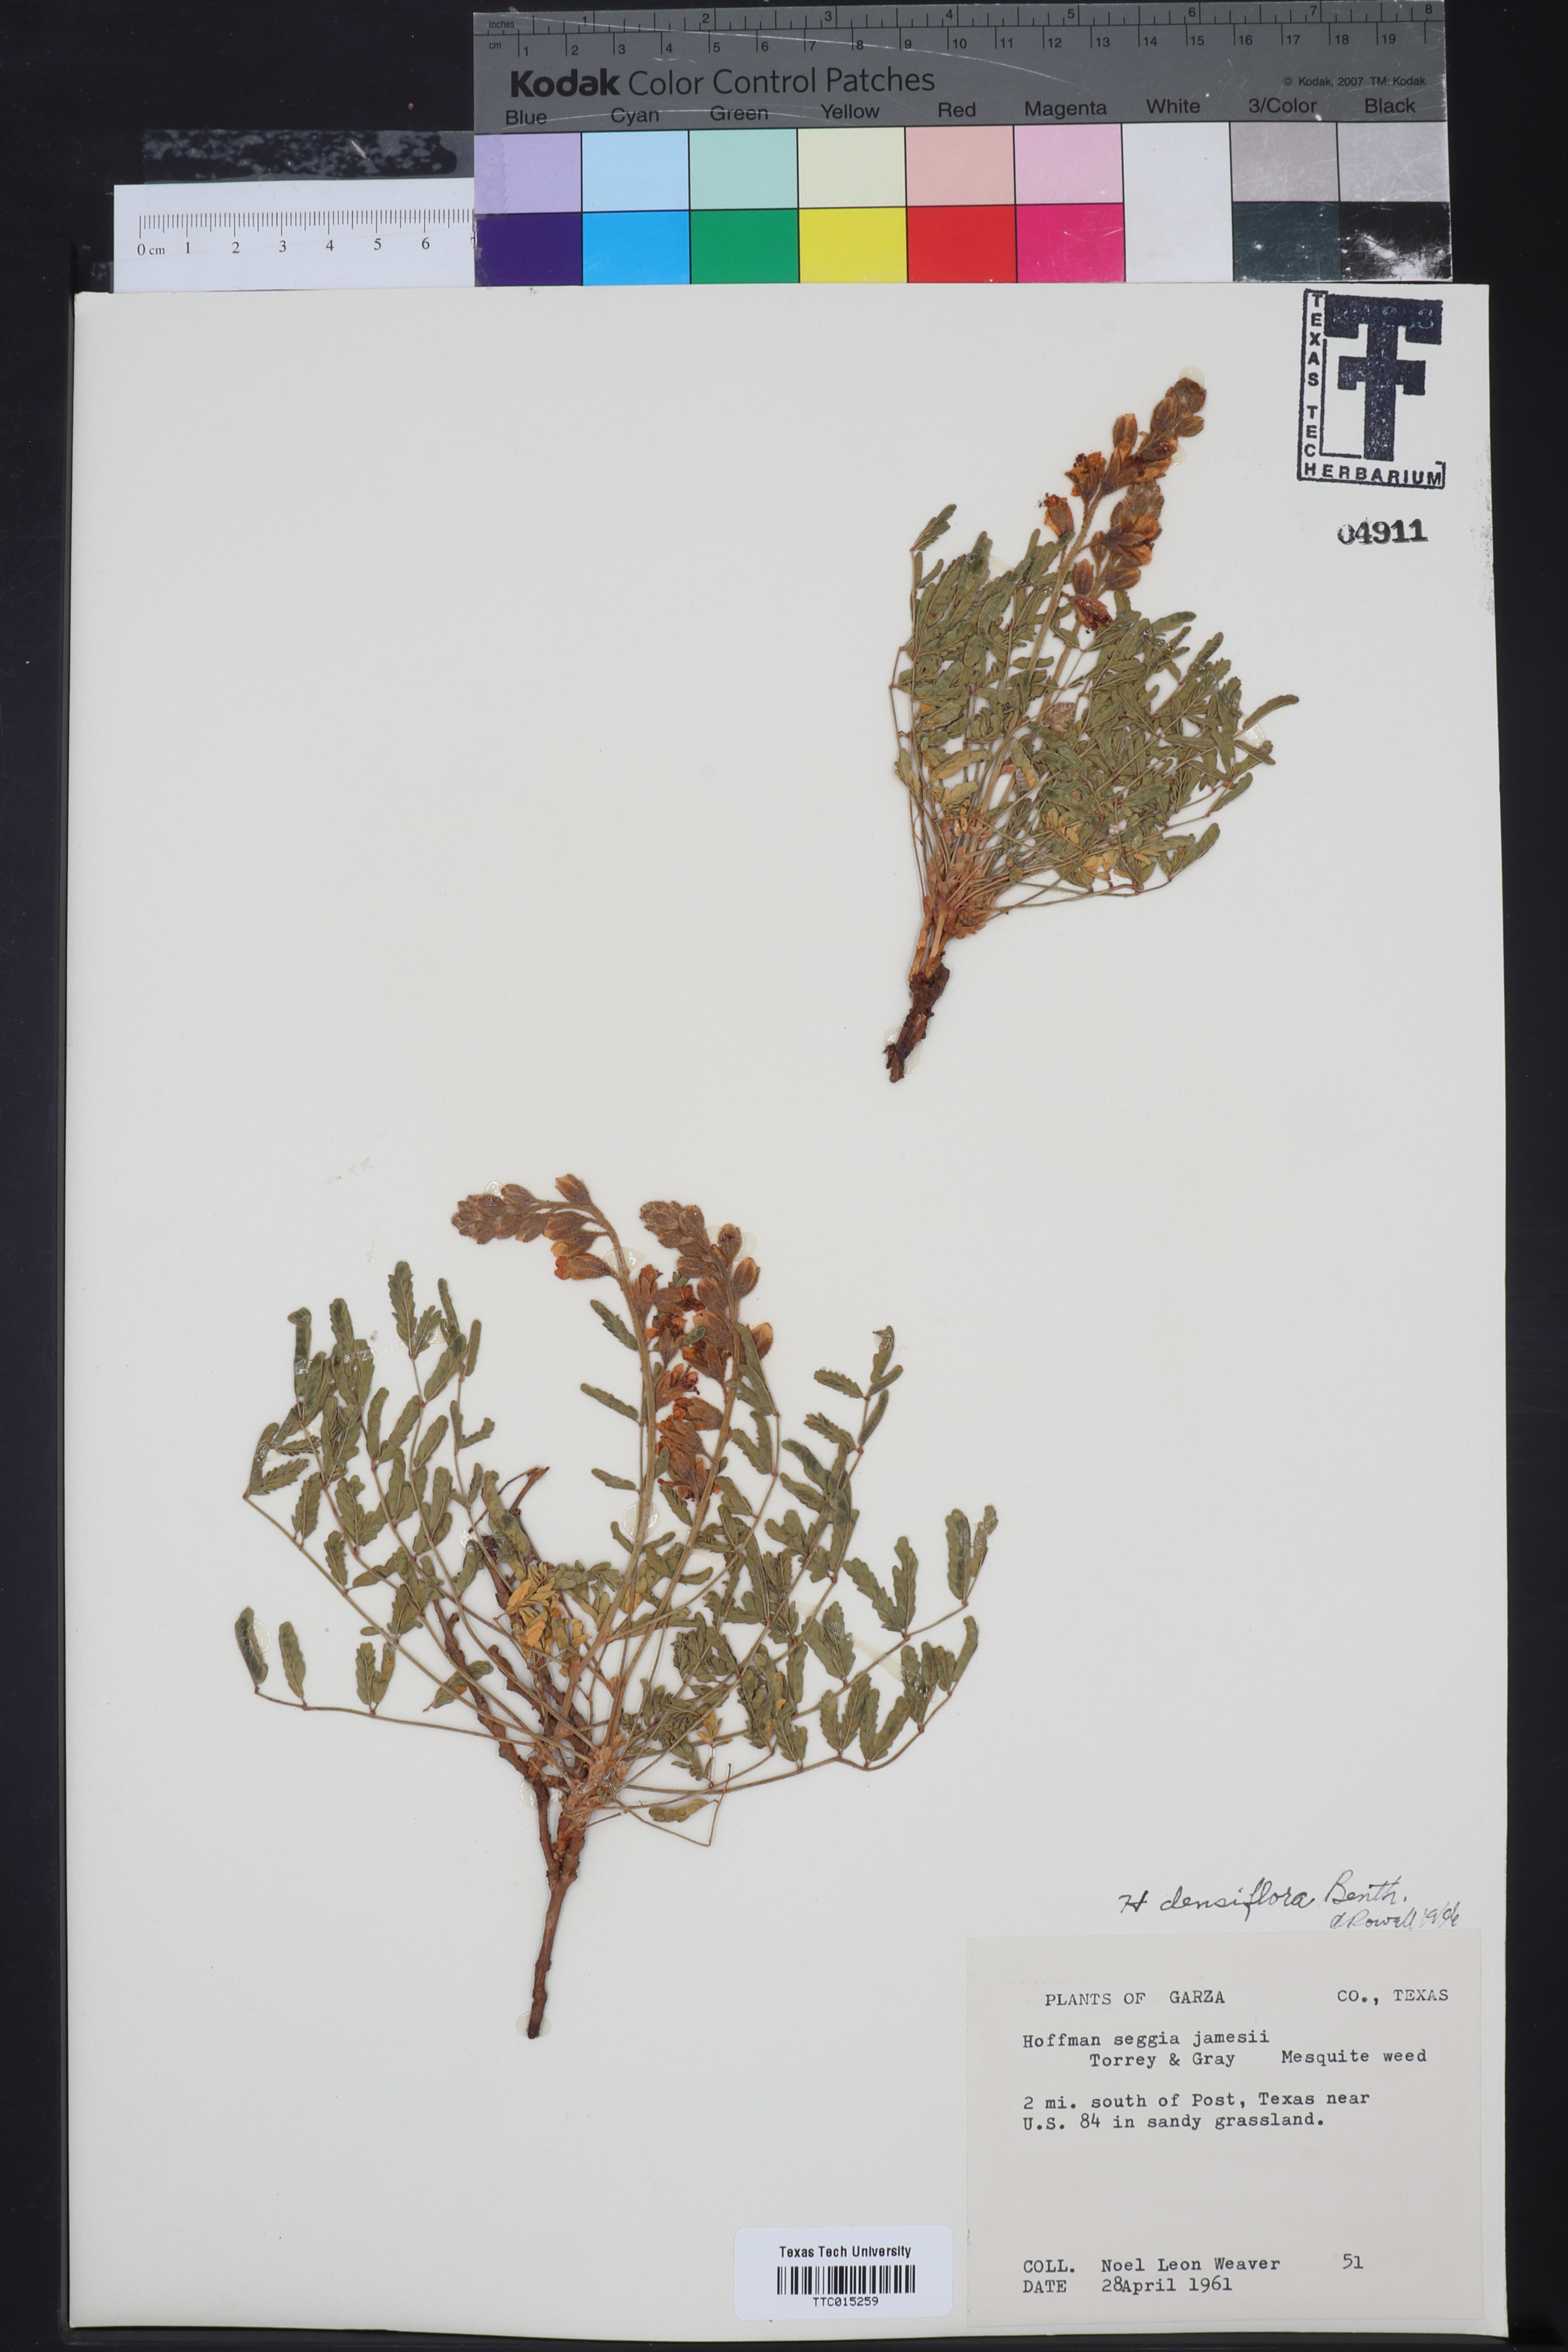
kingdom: Plantae
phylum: Tracheophyta
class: Magnoliopsida
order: Fabales
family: Fabaceae
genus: Hoffmannseggia
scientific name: Hoffmannseggia glauca
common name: Pignut
